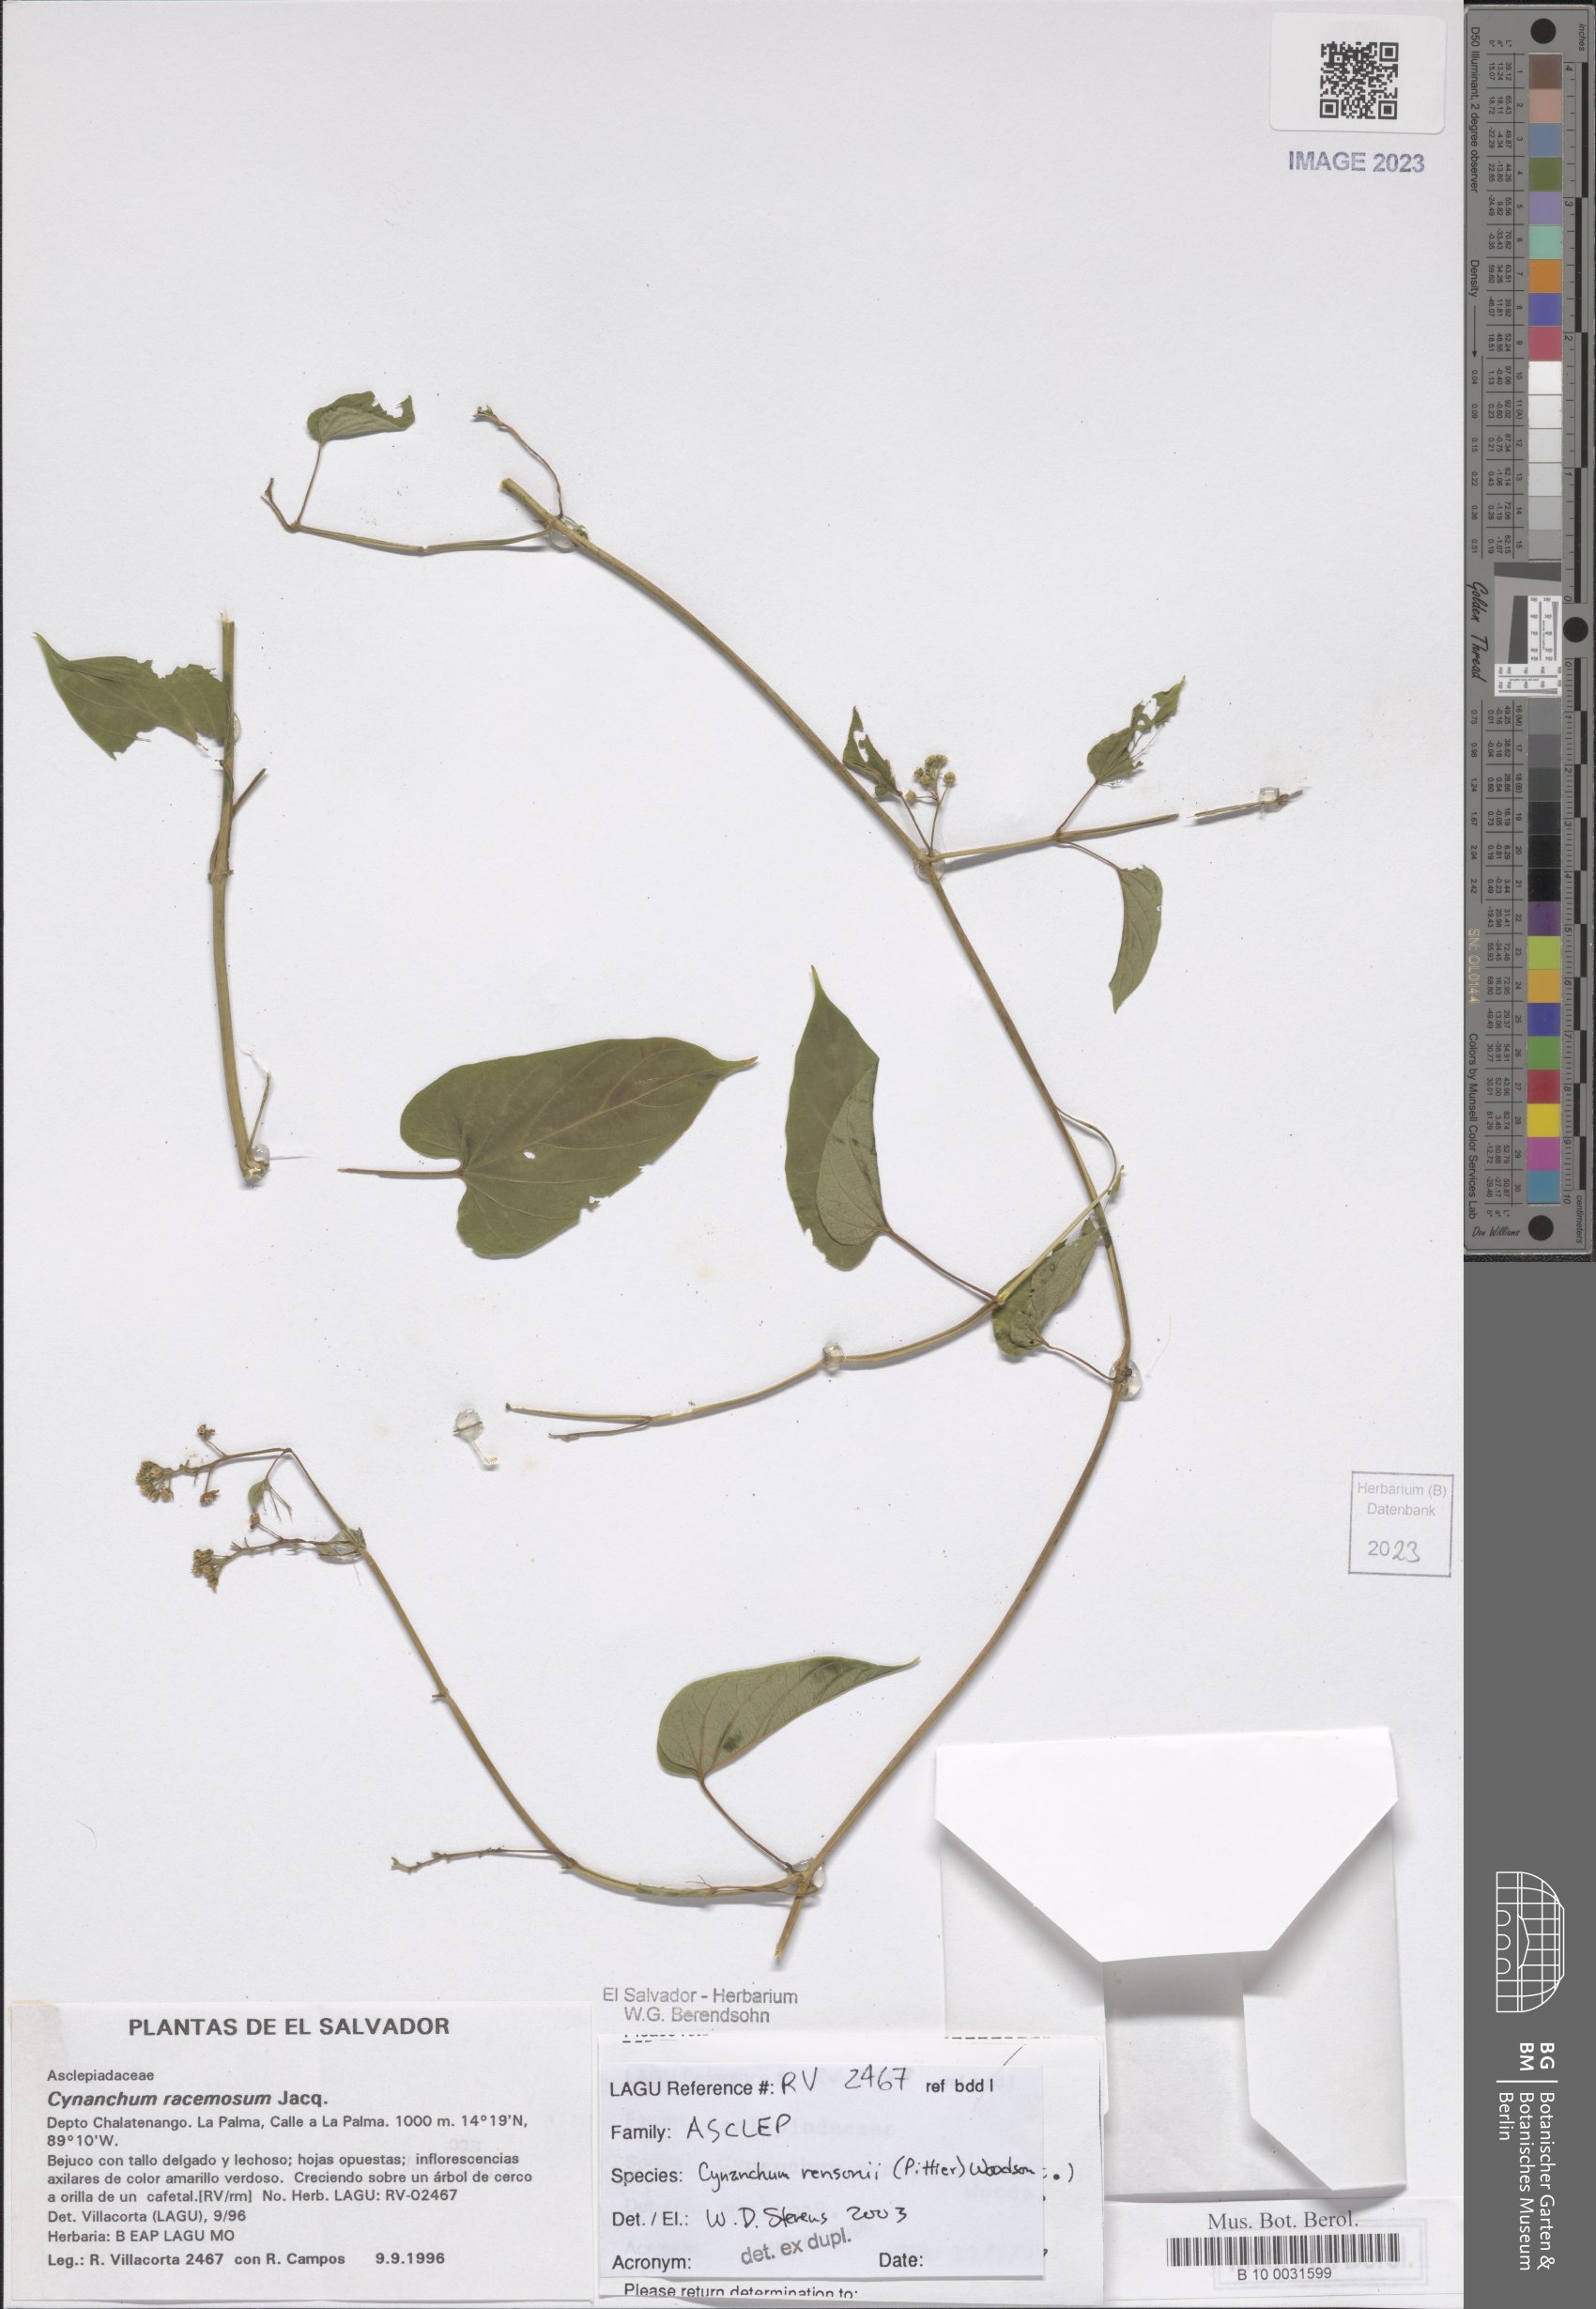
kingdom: Plantae
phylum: Tracheophyta
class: Magnoliopsida
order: Gentianales
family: Apocynaceae
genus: Cynanchum
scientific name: Cynanchum rensonii
